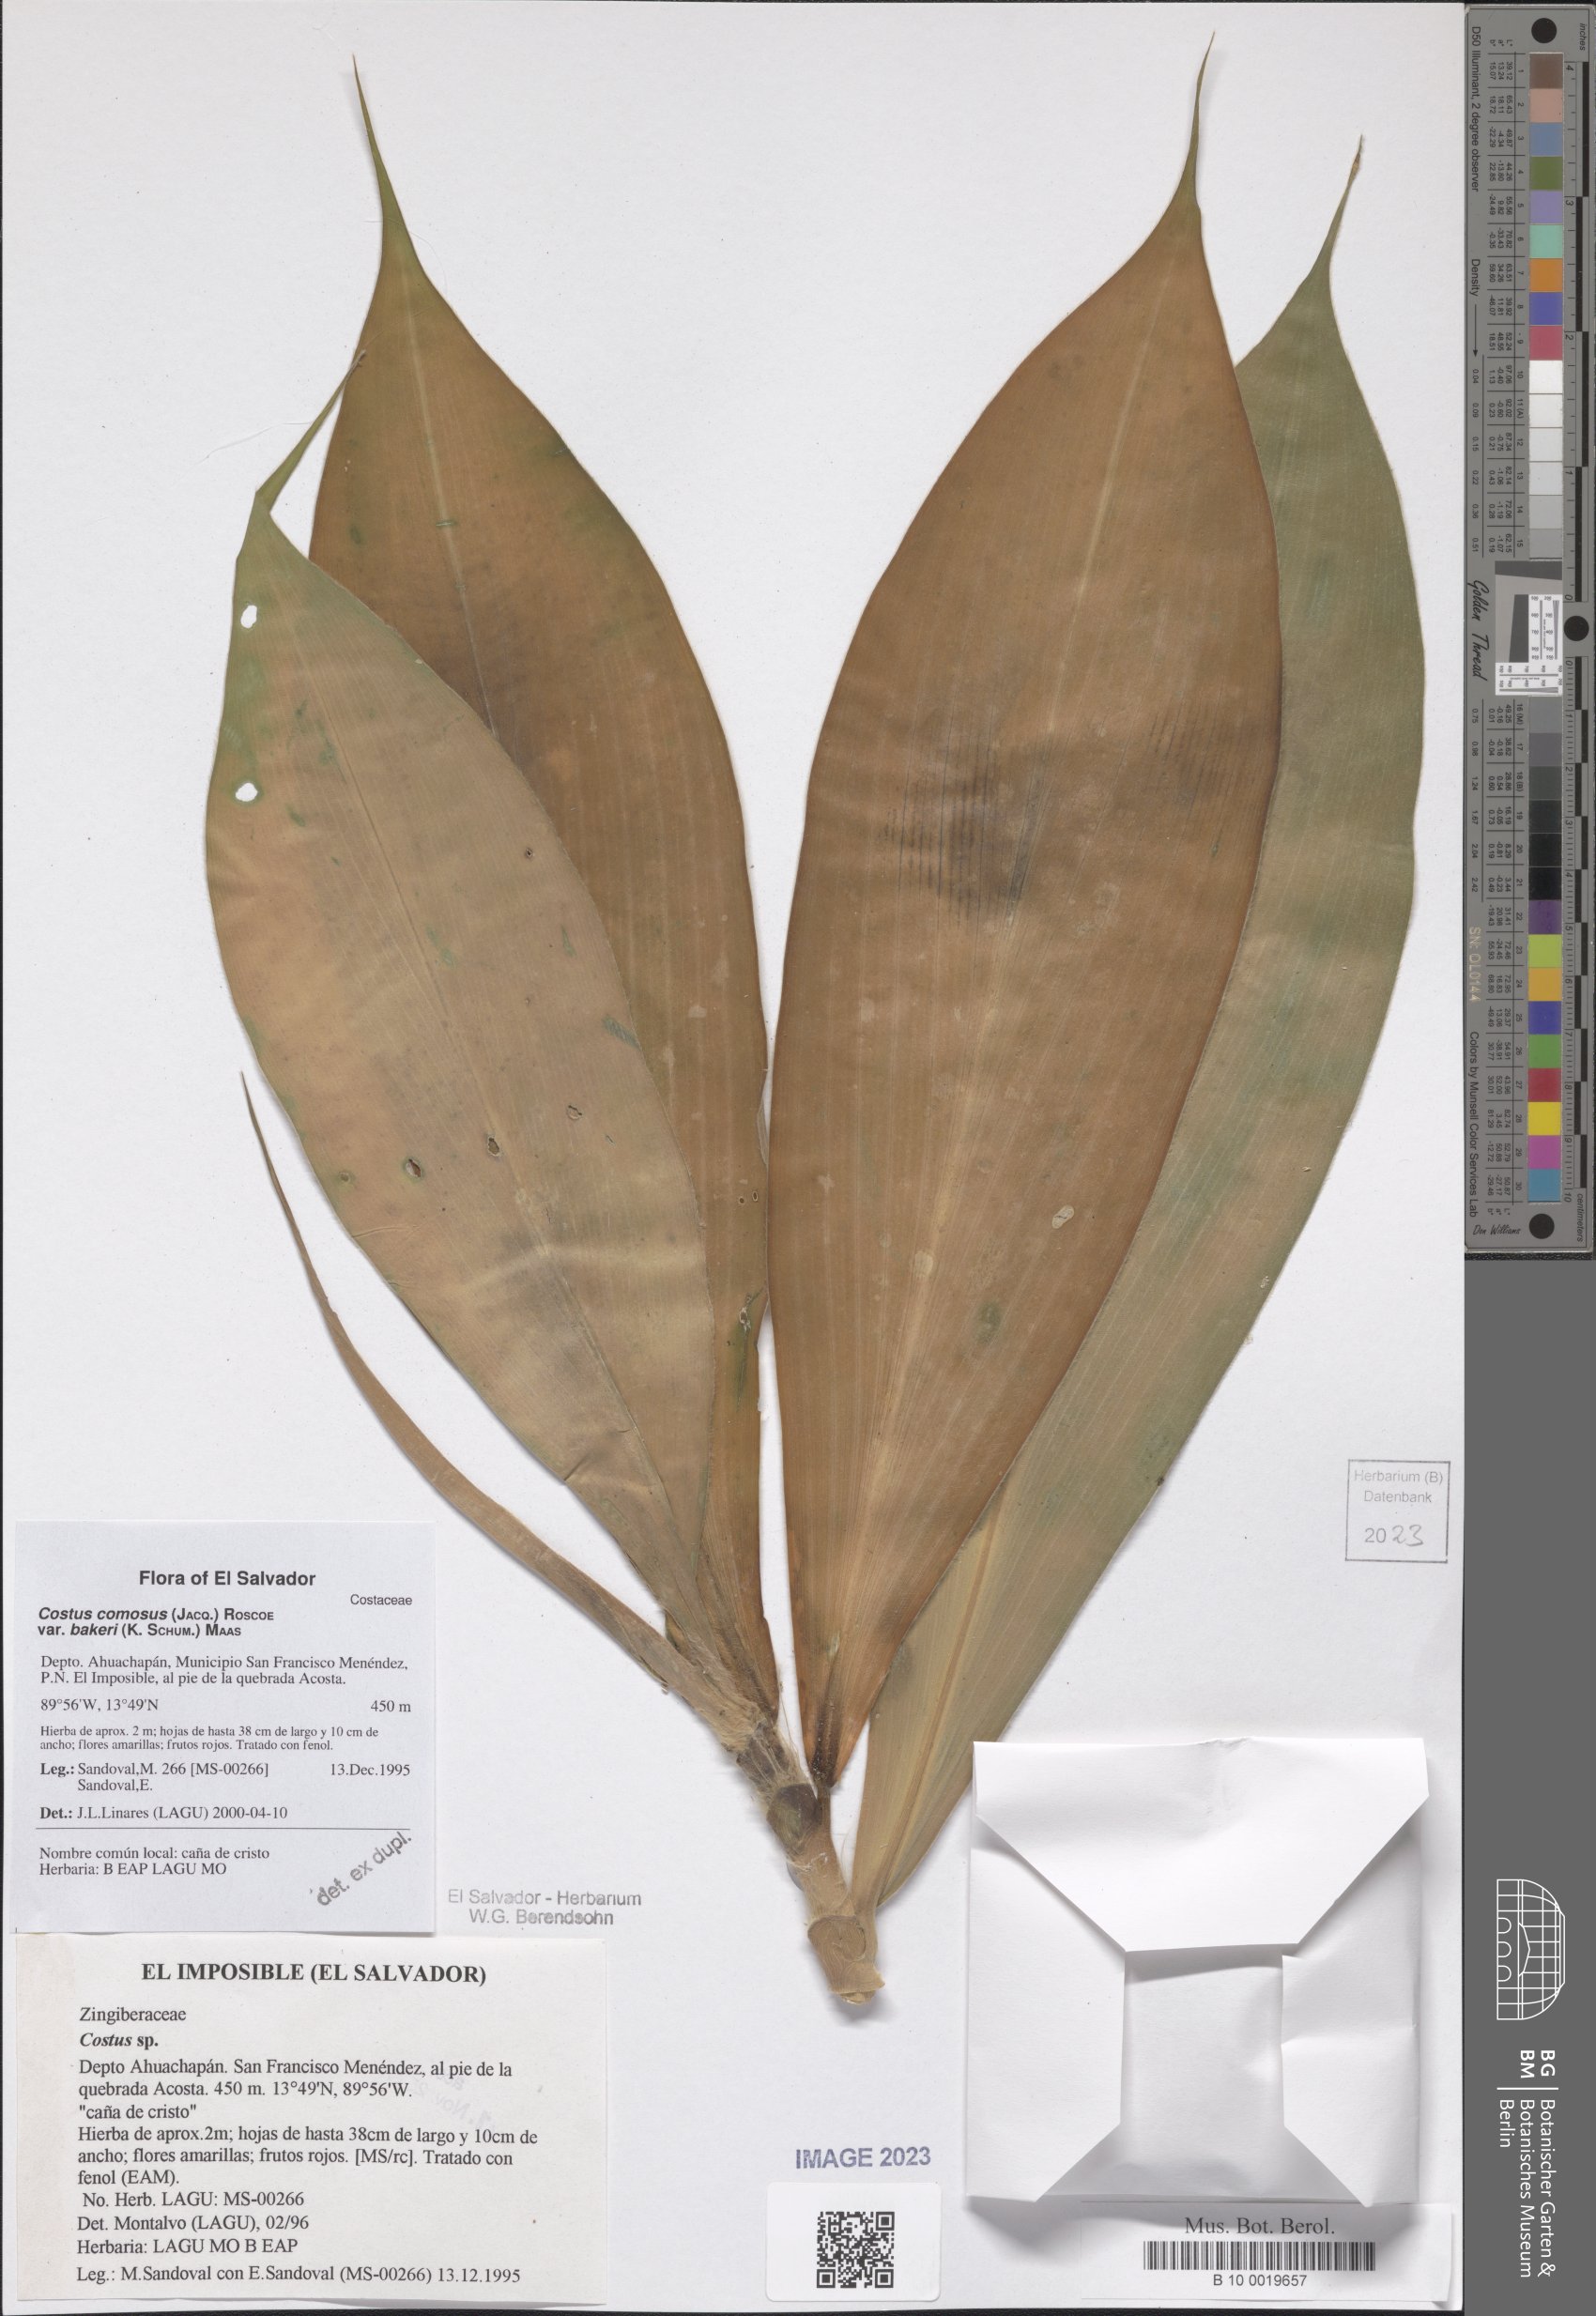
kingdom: Plantae
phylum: Tracheophyta
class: Liliopsida
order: Zingiberales
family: Costaceae
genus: Costus
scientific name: Costus comosus
